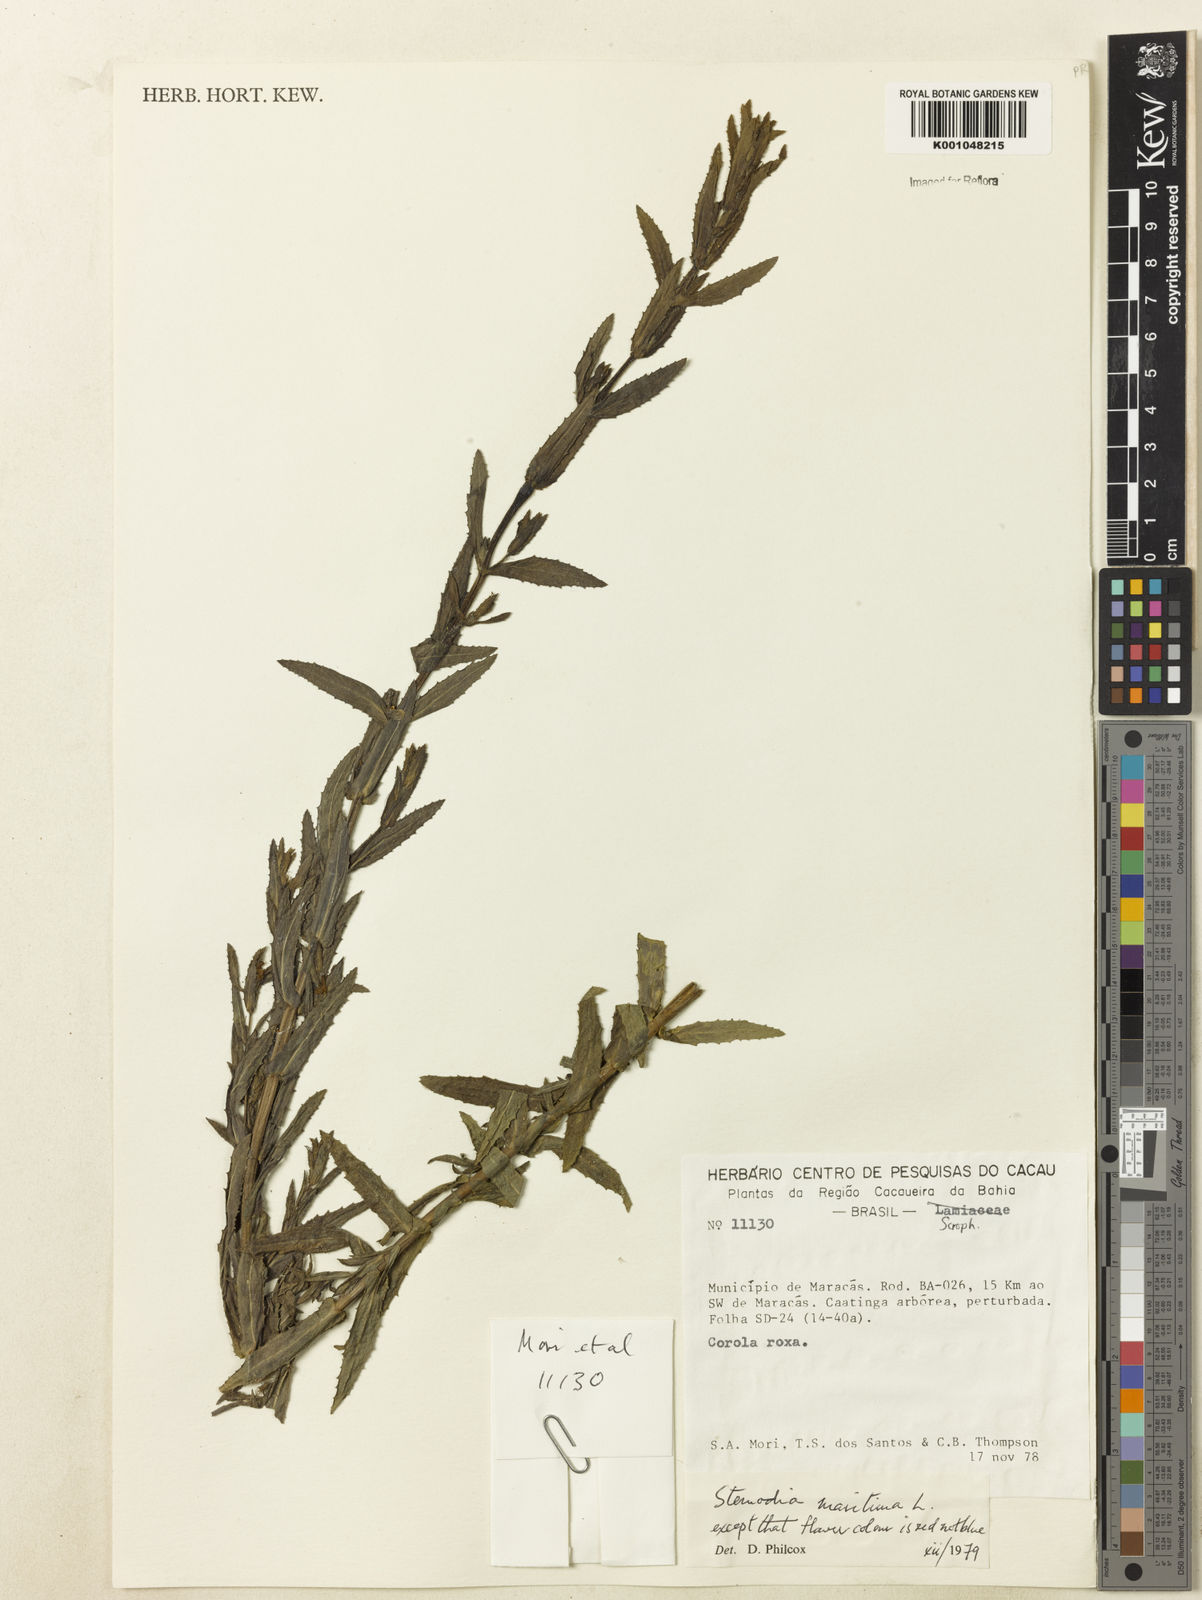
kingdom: Plantae
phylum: Tracheophyta
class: Magnoliopsida
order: Lamiales
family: Plantaginaceae
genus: Stemodia
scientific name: Stemodia maritima
